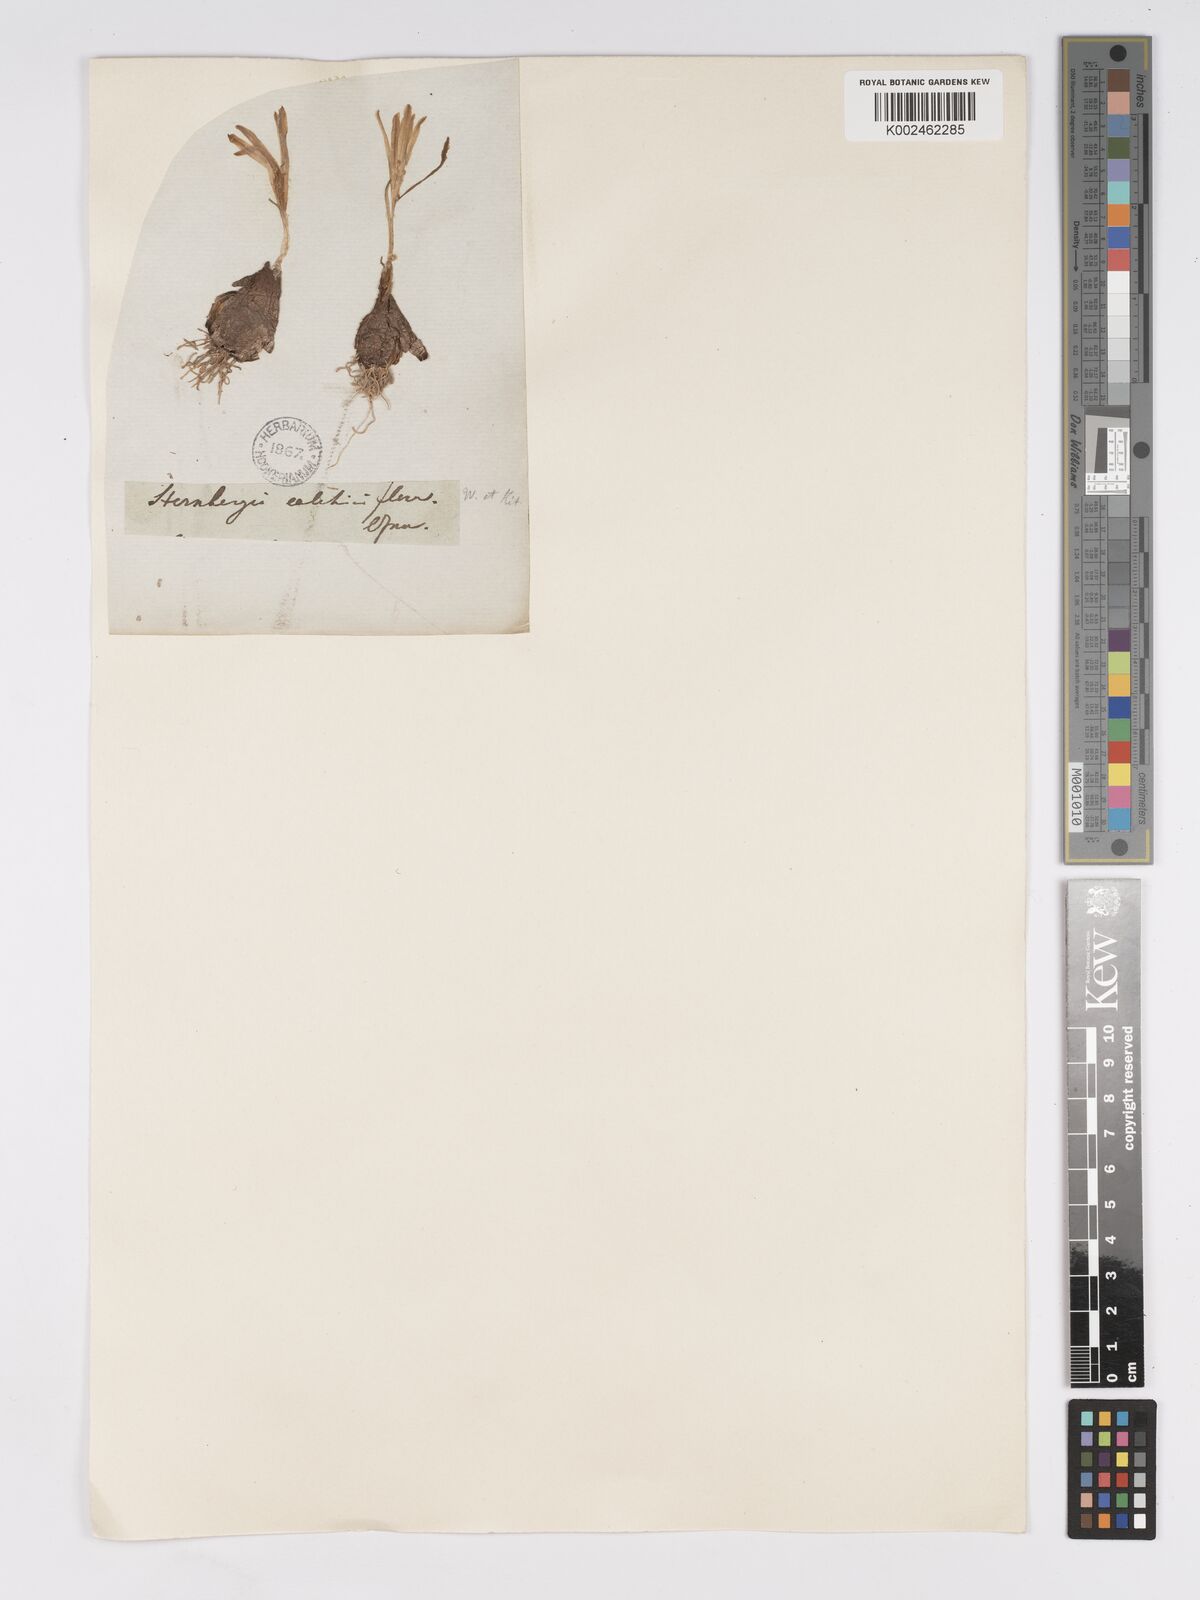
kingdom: Plantae
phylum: Tracheophyta
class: Liliopsida
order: Asparagales
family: Amaryllidaceae
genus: Sternbergia
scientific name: Sternbergia colchiciflora
